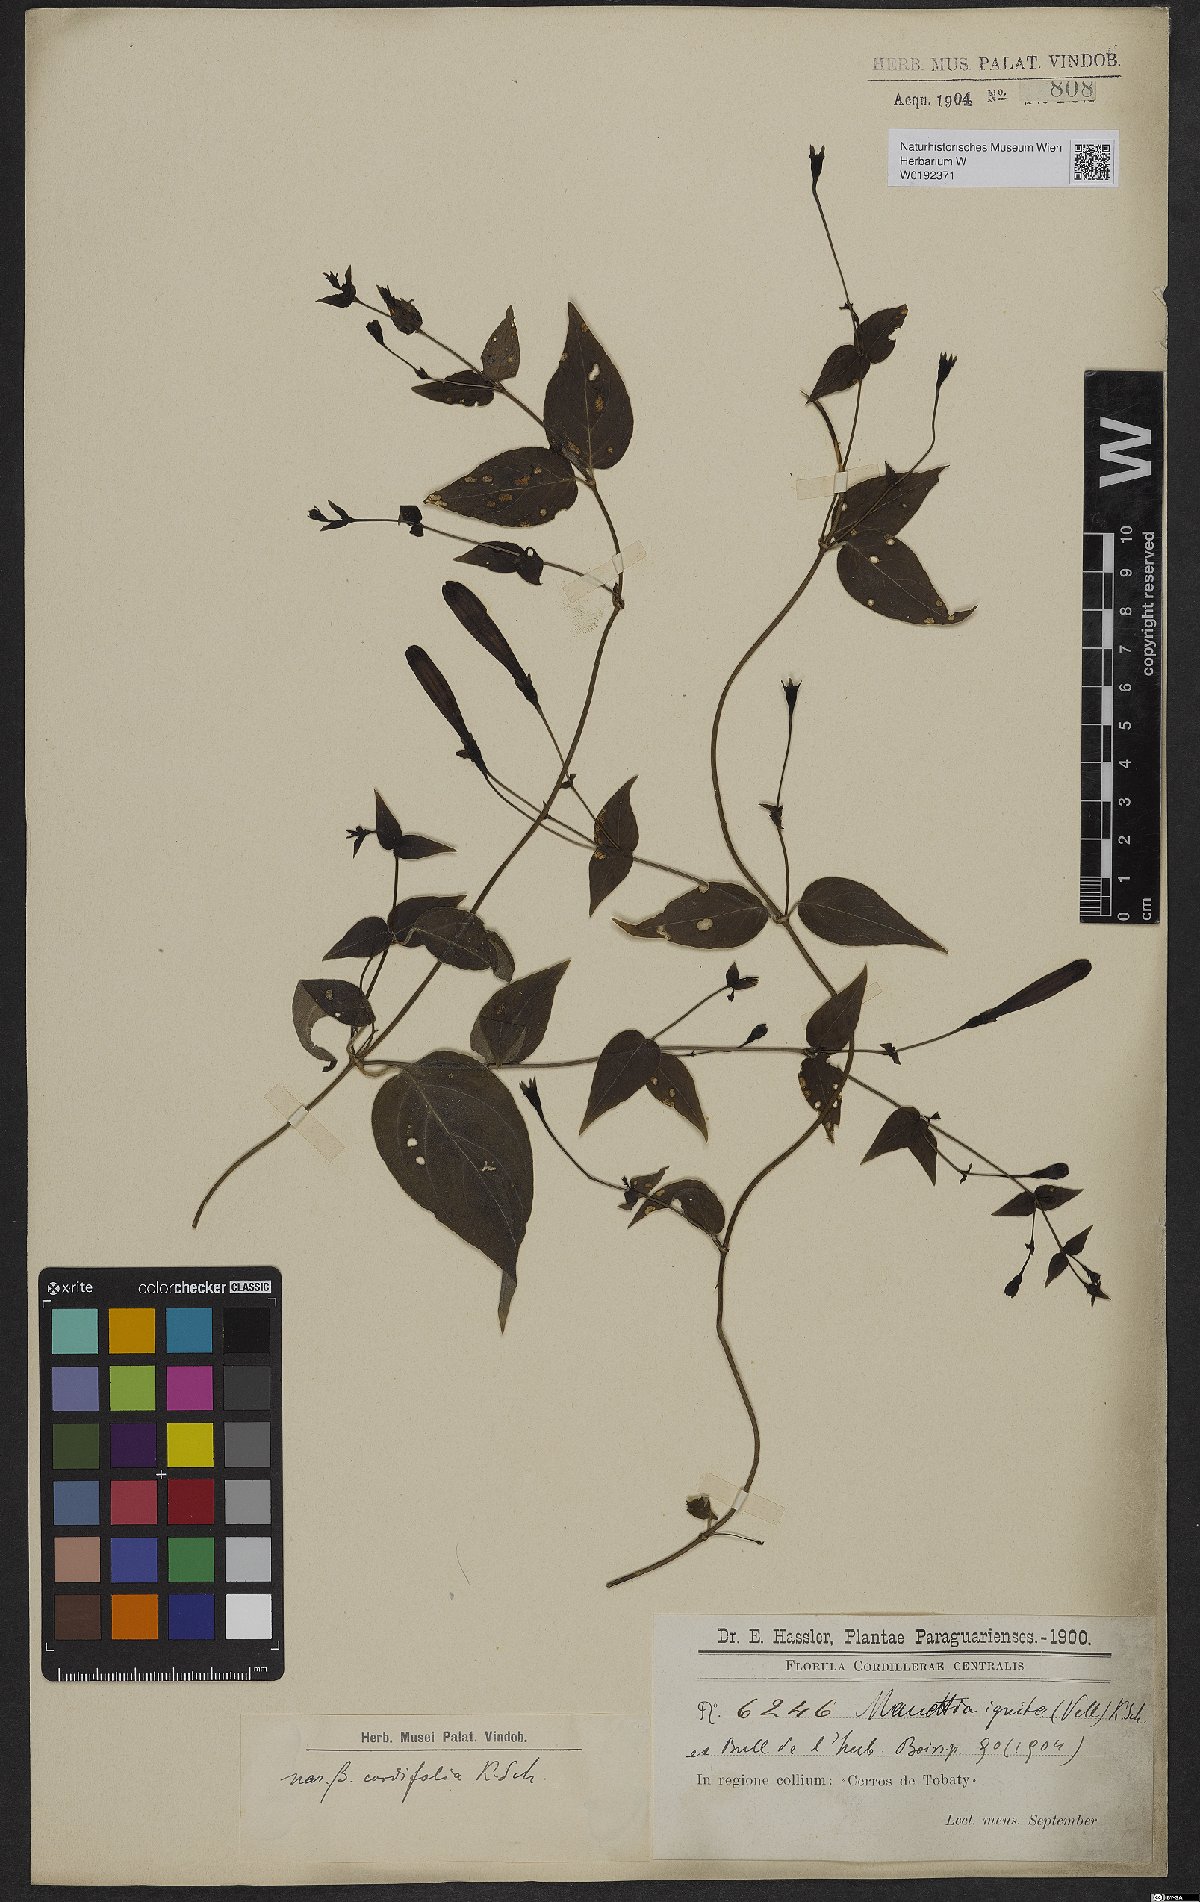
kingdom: Plantae
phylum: Tracheophyta
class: Magnoliopsida
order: Gentianales
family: Rubiaceae
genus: Manettia
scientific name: Manettia cordifolia
